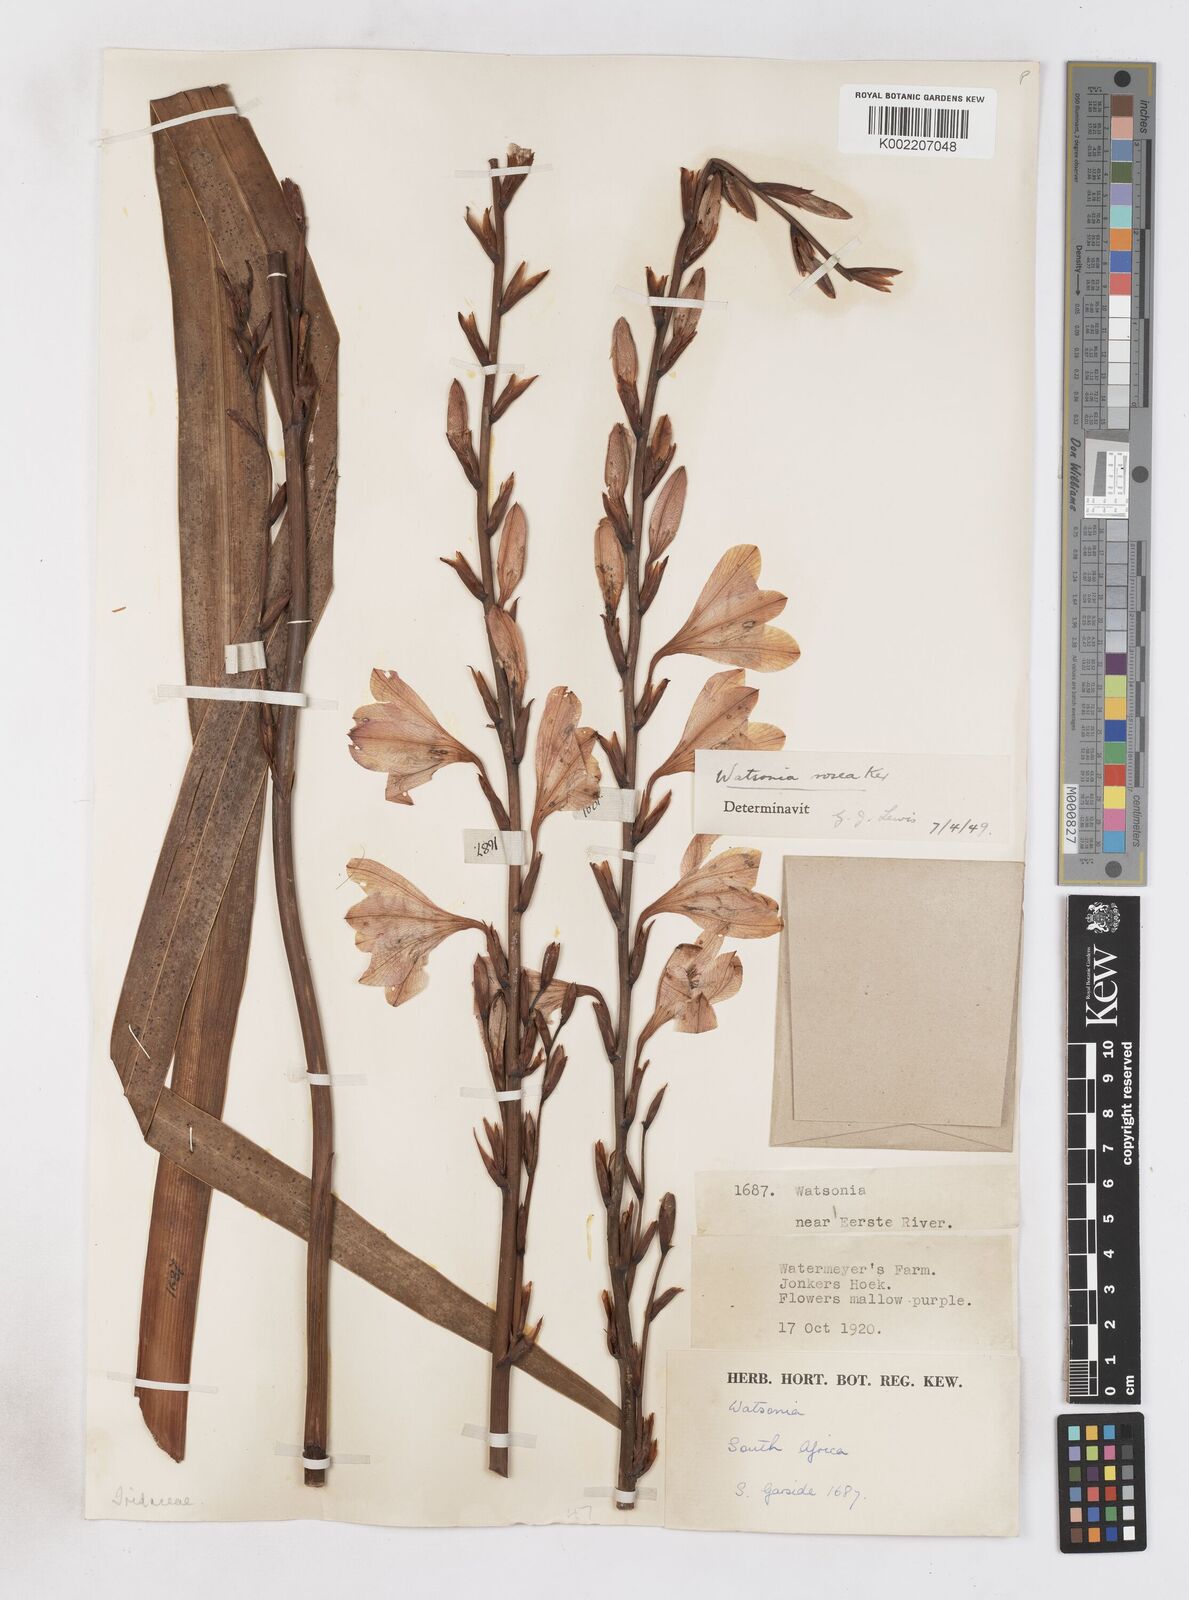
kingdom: Plantae
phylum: Tracheophyta
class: Liliopsida
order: Asparagales
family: Iridaceae
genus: Watsonia
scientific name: Watsonia borbonica
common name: Bugle-lily
